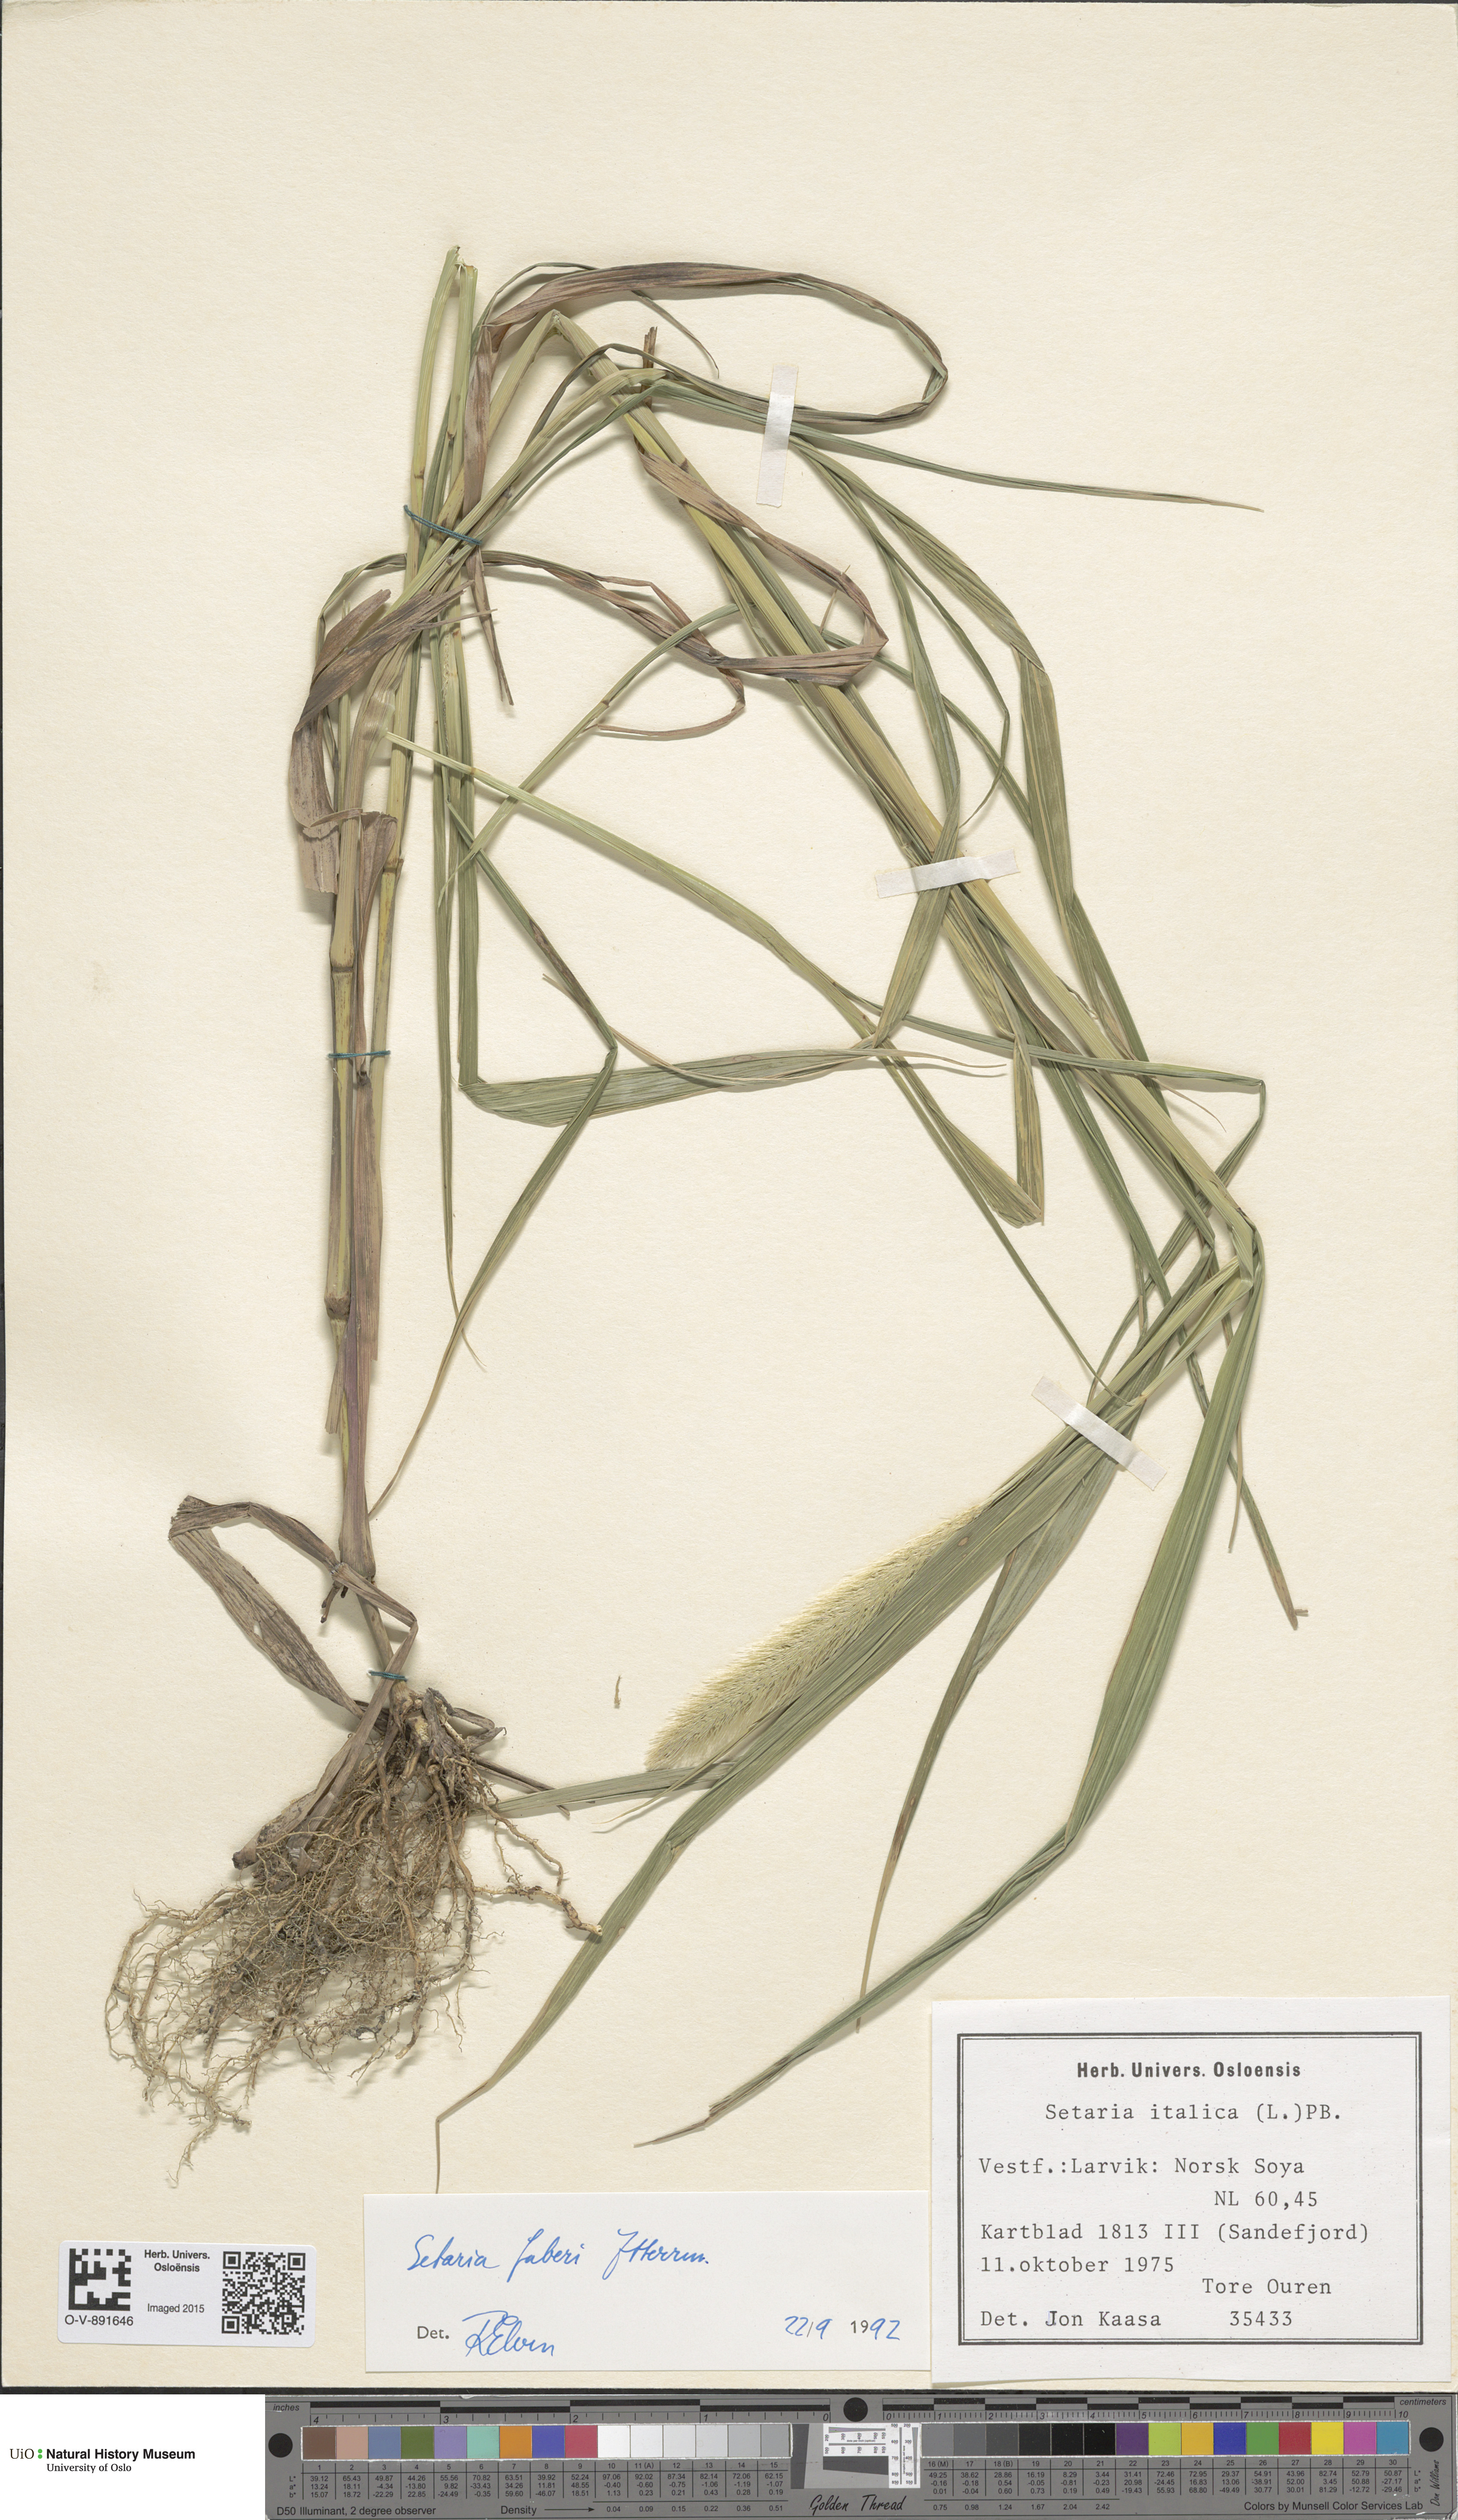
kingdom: Plantae
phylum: Tracheophyta
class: Liliopsida
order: Poales
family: Poaceae
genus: Setaria
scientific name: Setaria faberi
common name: Nodding bristle-grass
